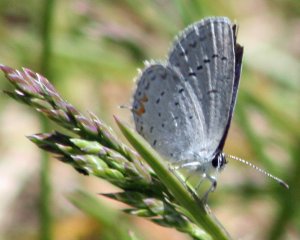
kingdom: Animalia
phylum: Arthropoda
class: Insecta
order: Lepidoptera
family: Lycaenidae
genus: Elkalyce
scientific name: Elkalyce comyntas
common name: Eastern Tailed-Blue
